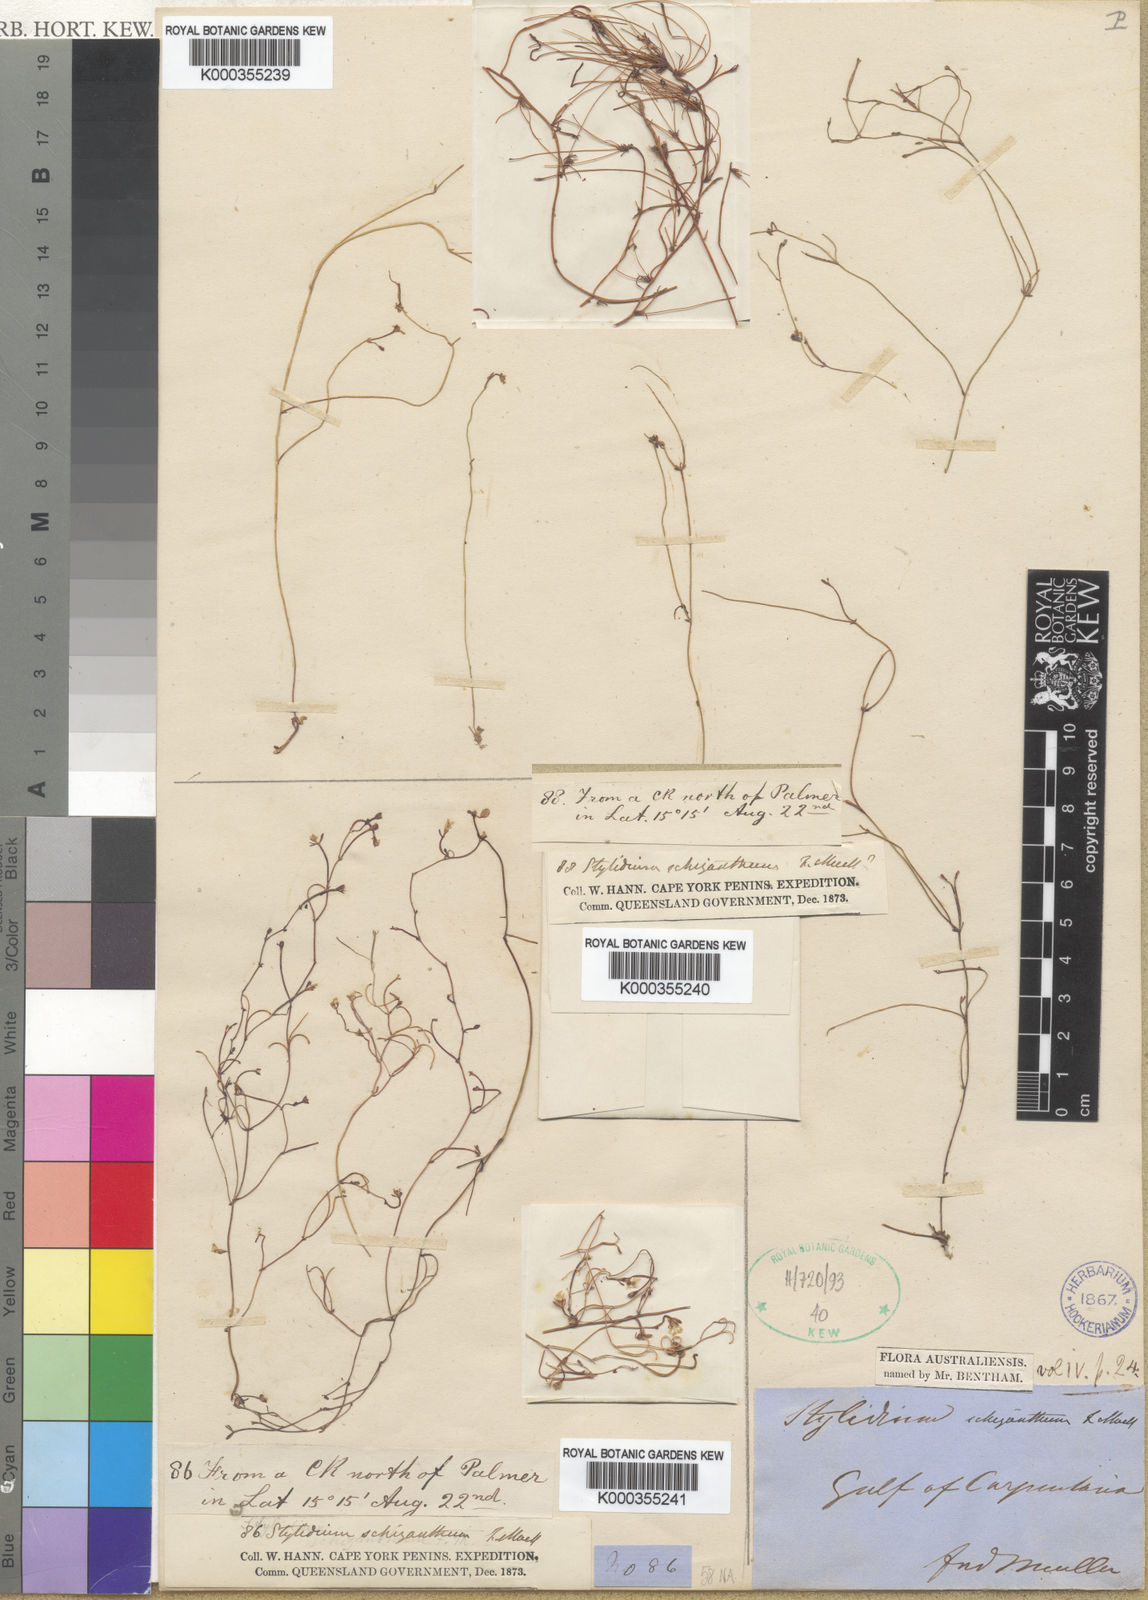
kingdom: Plantae
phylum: Tracheophyta
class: Magnoliopsida
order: Asterales
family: Stylidiaceae
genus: Stylidium
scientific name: Stylidium schizanthum
